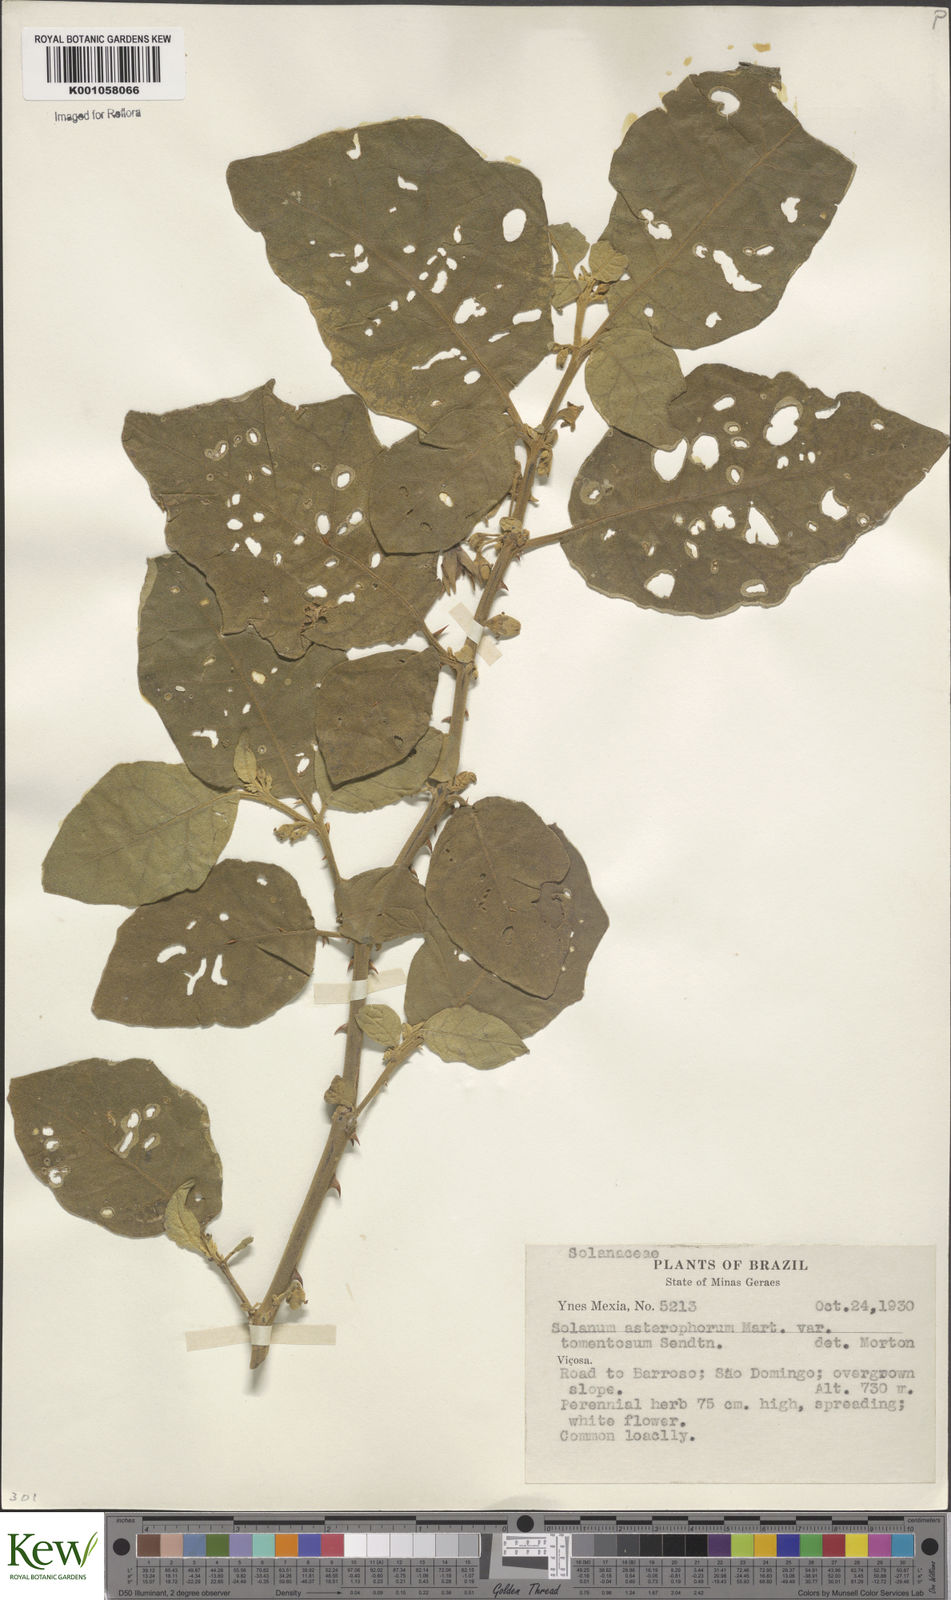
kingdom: Plantae
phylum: Tracheophyta
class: Magnoliopsida
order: Solanales
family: Solanaceae
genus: Solanum
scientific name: Solanum asterophorum
